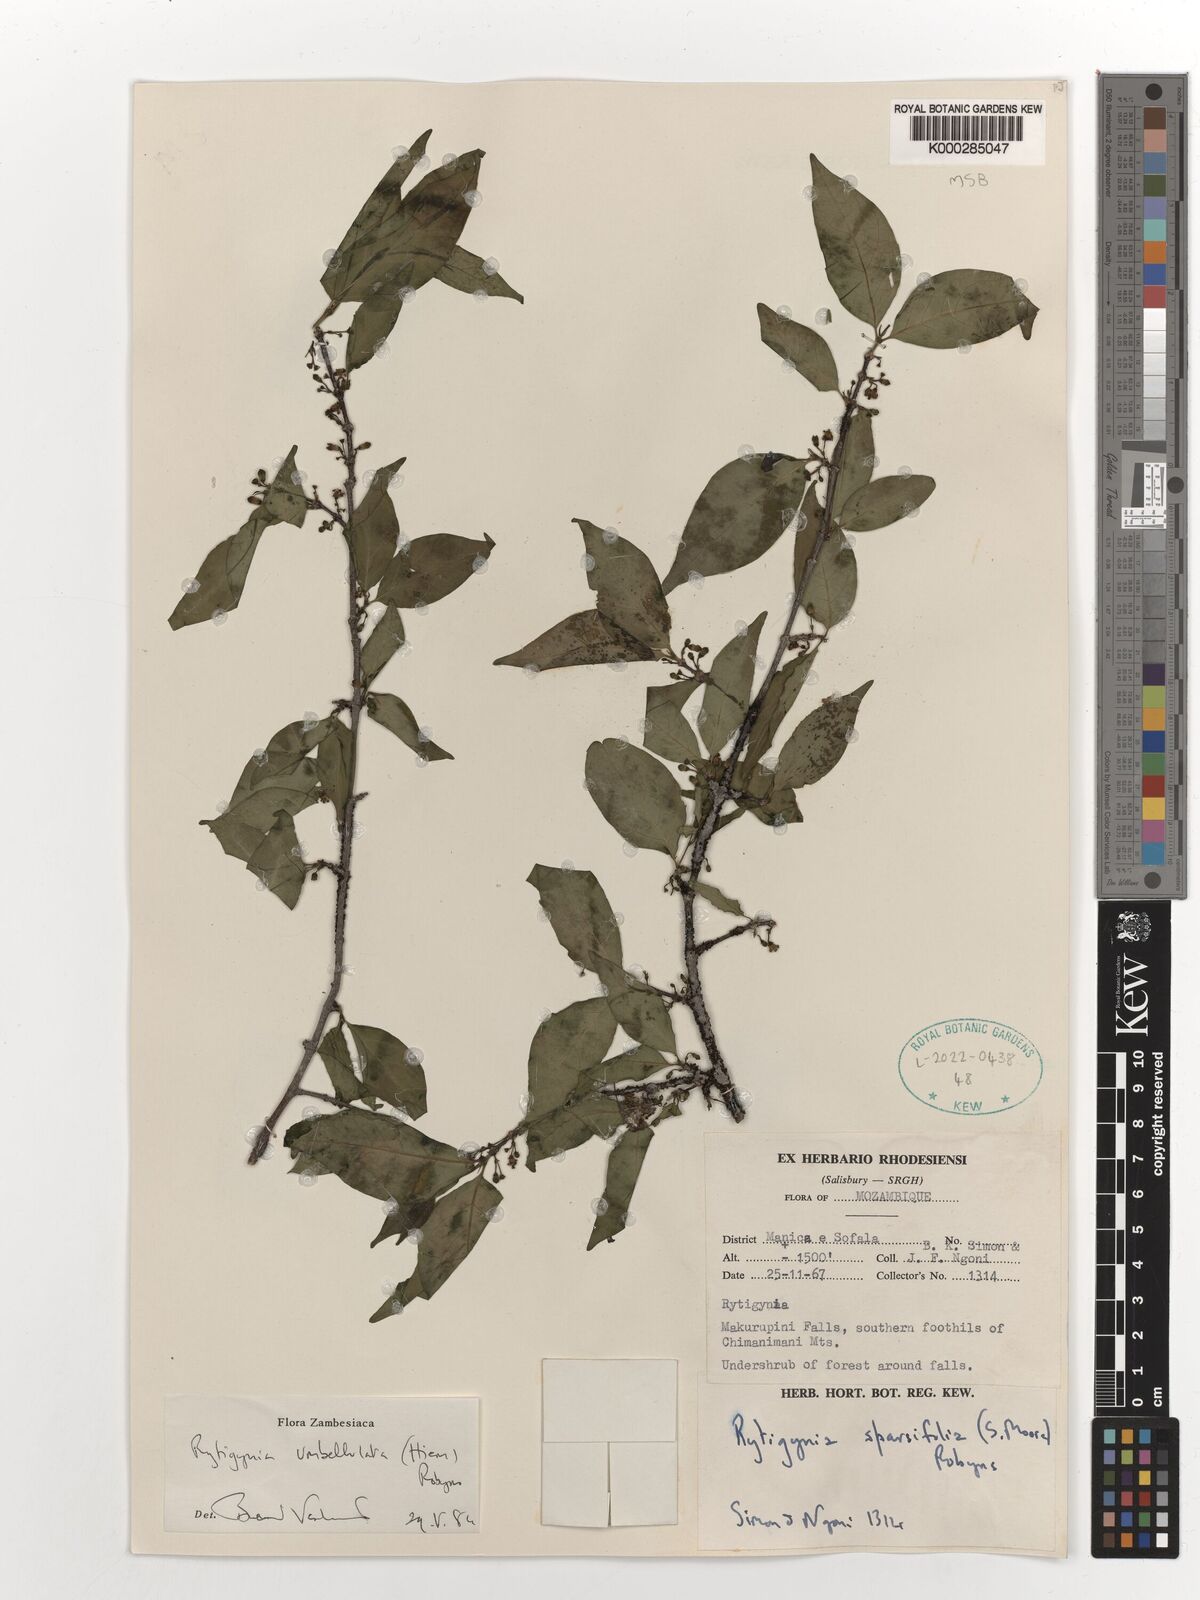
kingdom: Plantae
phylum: Tracheophyta
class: Magnoliopsida
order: Gentianales
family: Rubiaceae
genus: Rytigynia
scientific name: Rytigynia umbellulata
